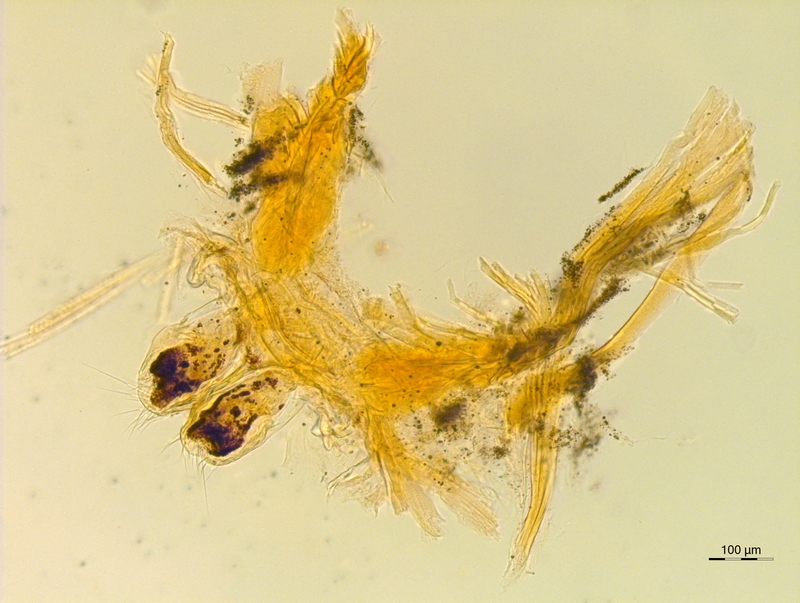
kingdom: Animalia
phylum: Arthropoda
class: Diplopoda
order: Chordeumatida
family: Attemsiidae
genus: Schubartia
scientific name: Schubartia lohmanderi
